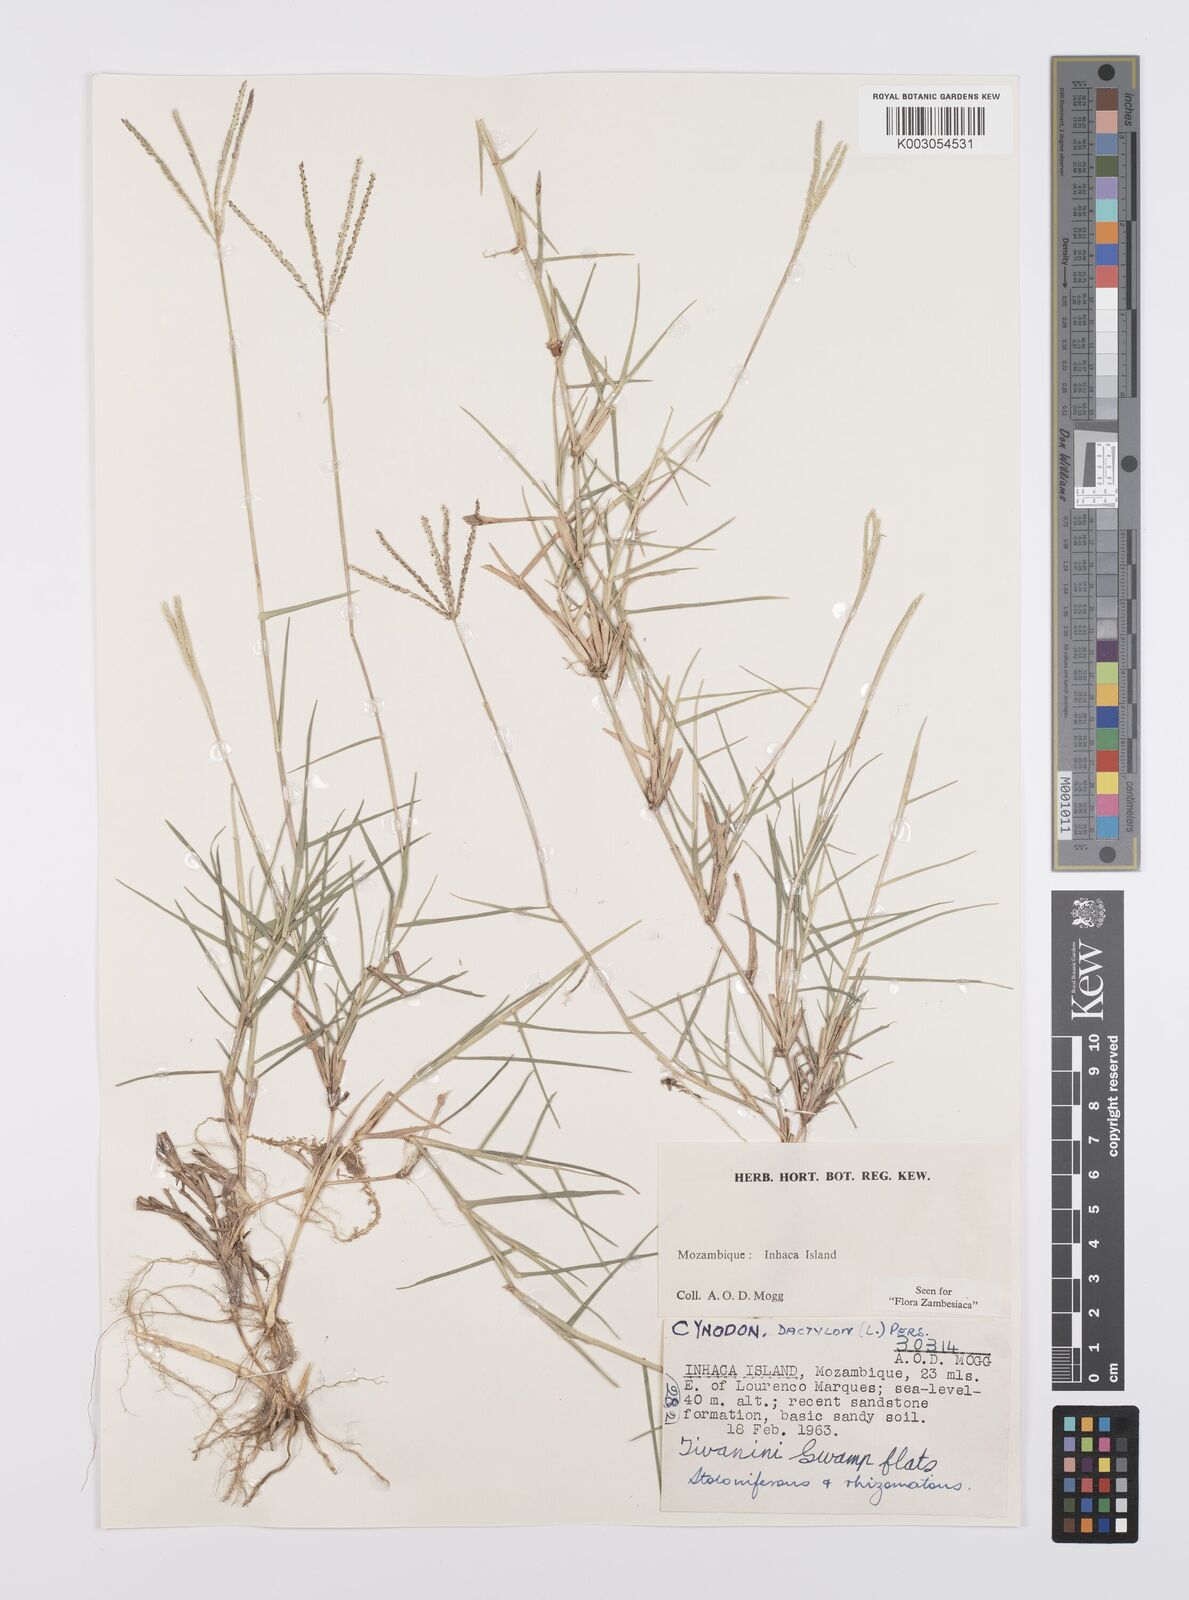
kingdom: Plantae
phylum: Tracheophyta
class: Liliopsida
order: Poales
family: Poaceae
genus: Cynodon
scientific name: Cynodon dactylon
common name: Bermuda grass
